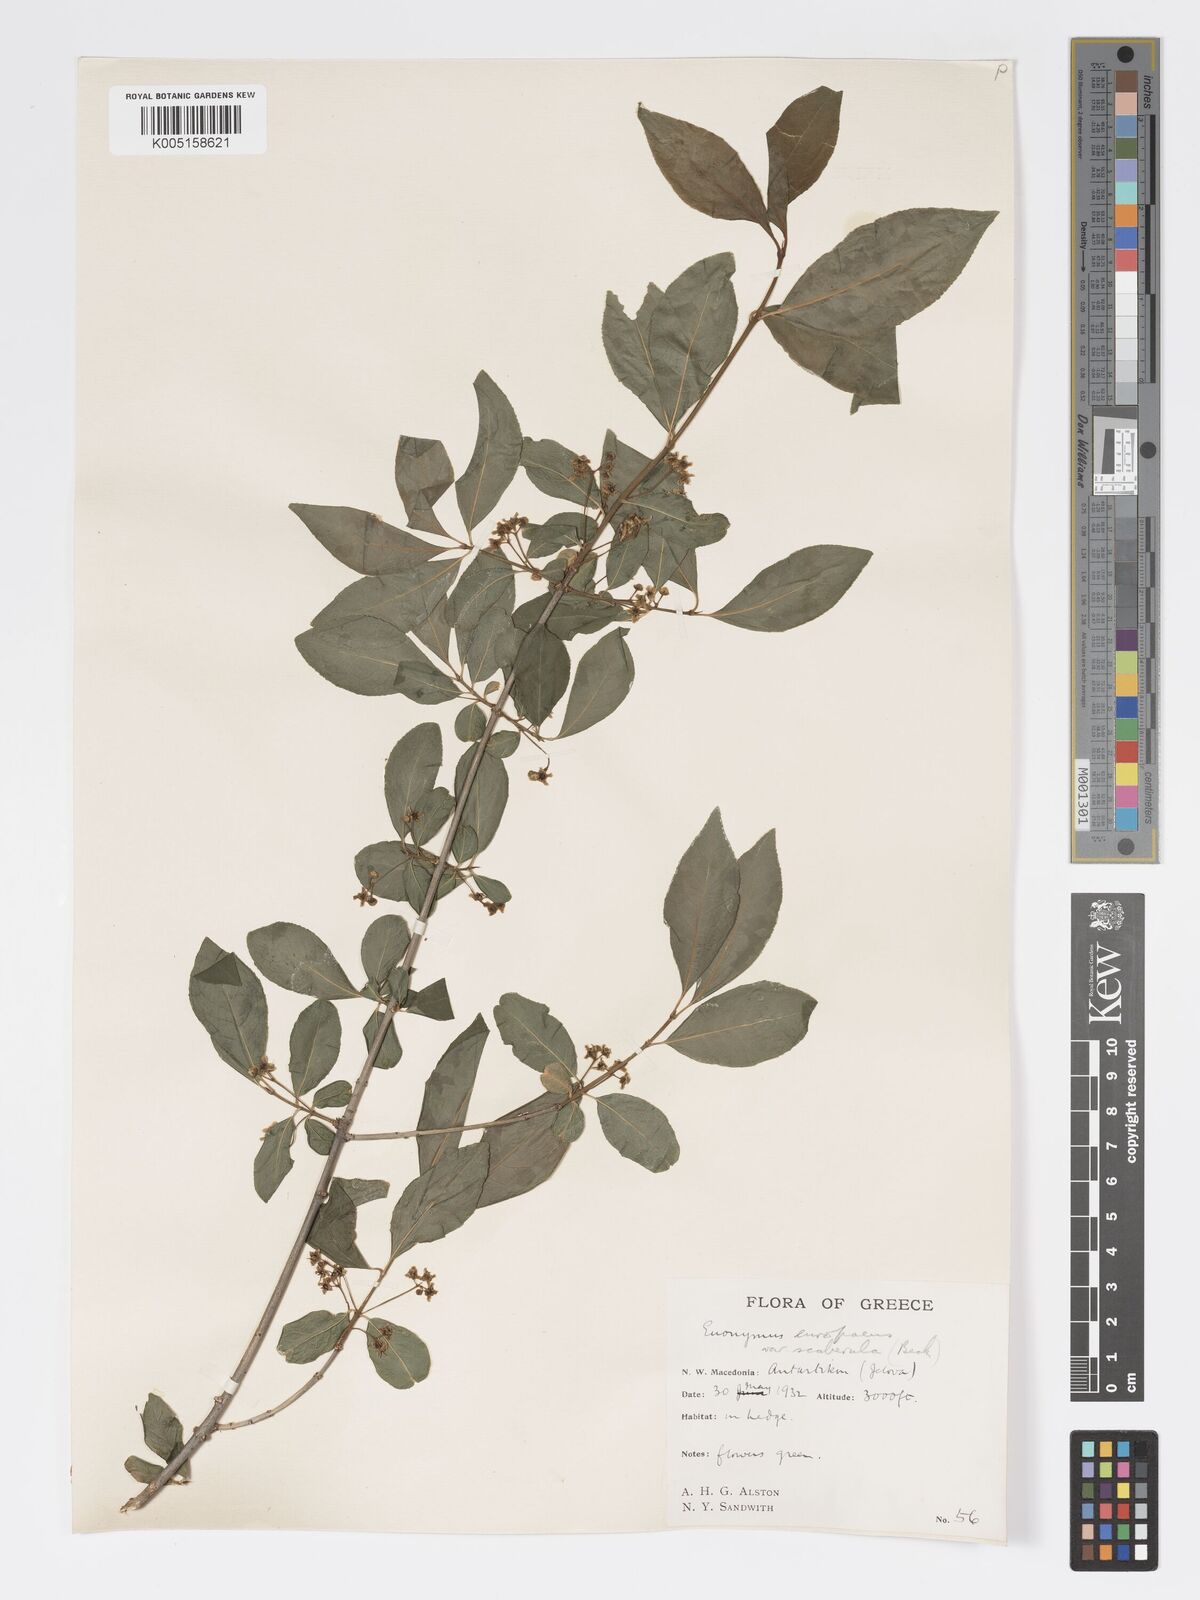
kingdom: Plantae
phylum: Tracheophyta
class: Magnoliopsida
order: Celastrales
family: Celastraceae
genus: Euonymus
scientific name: Euonymus europaeus
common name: Spindle
